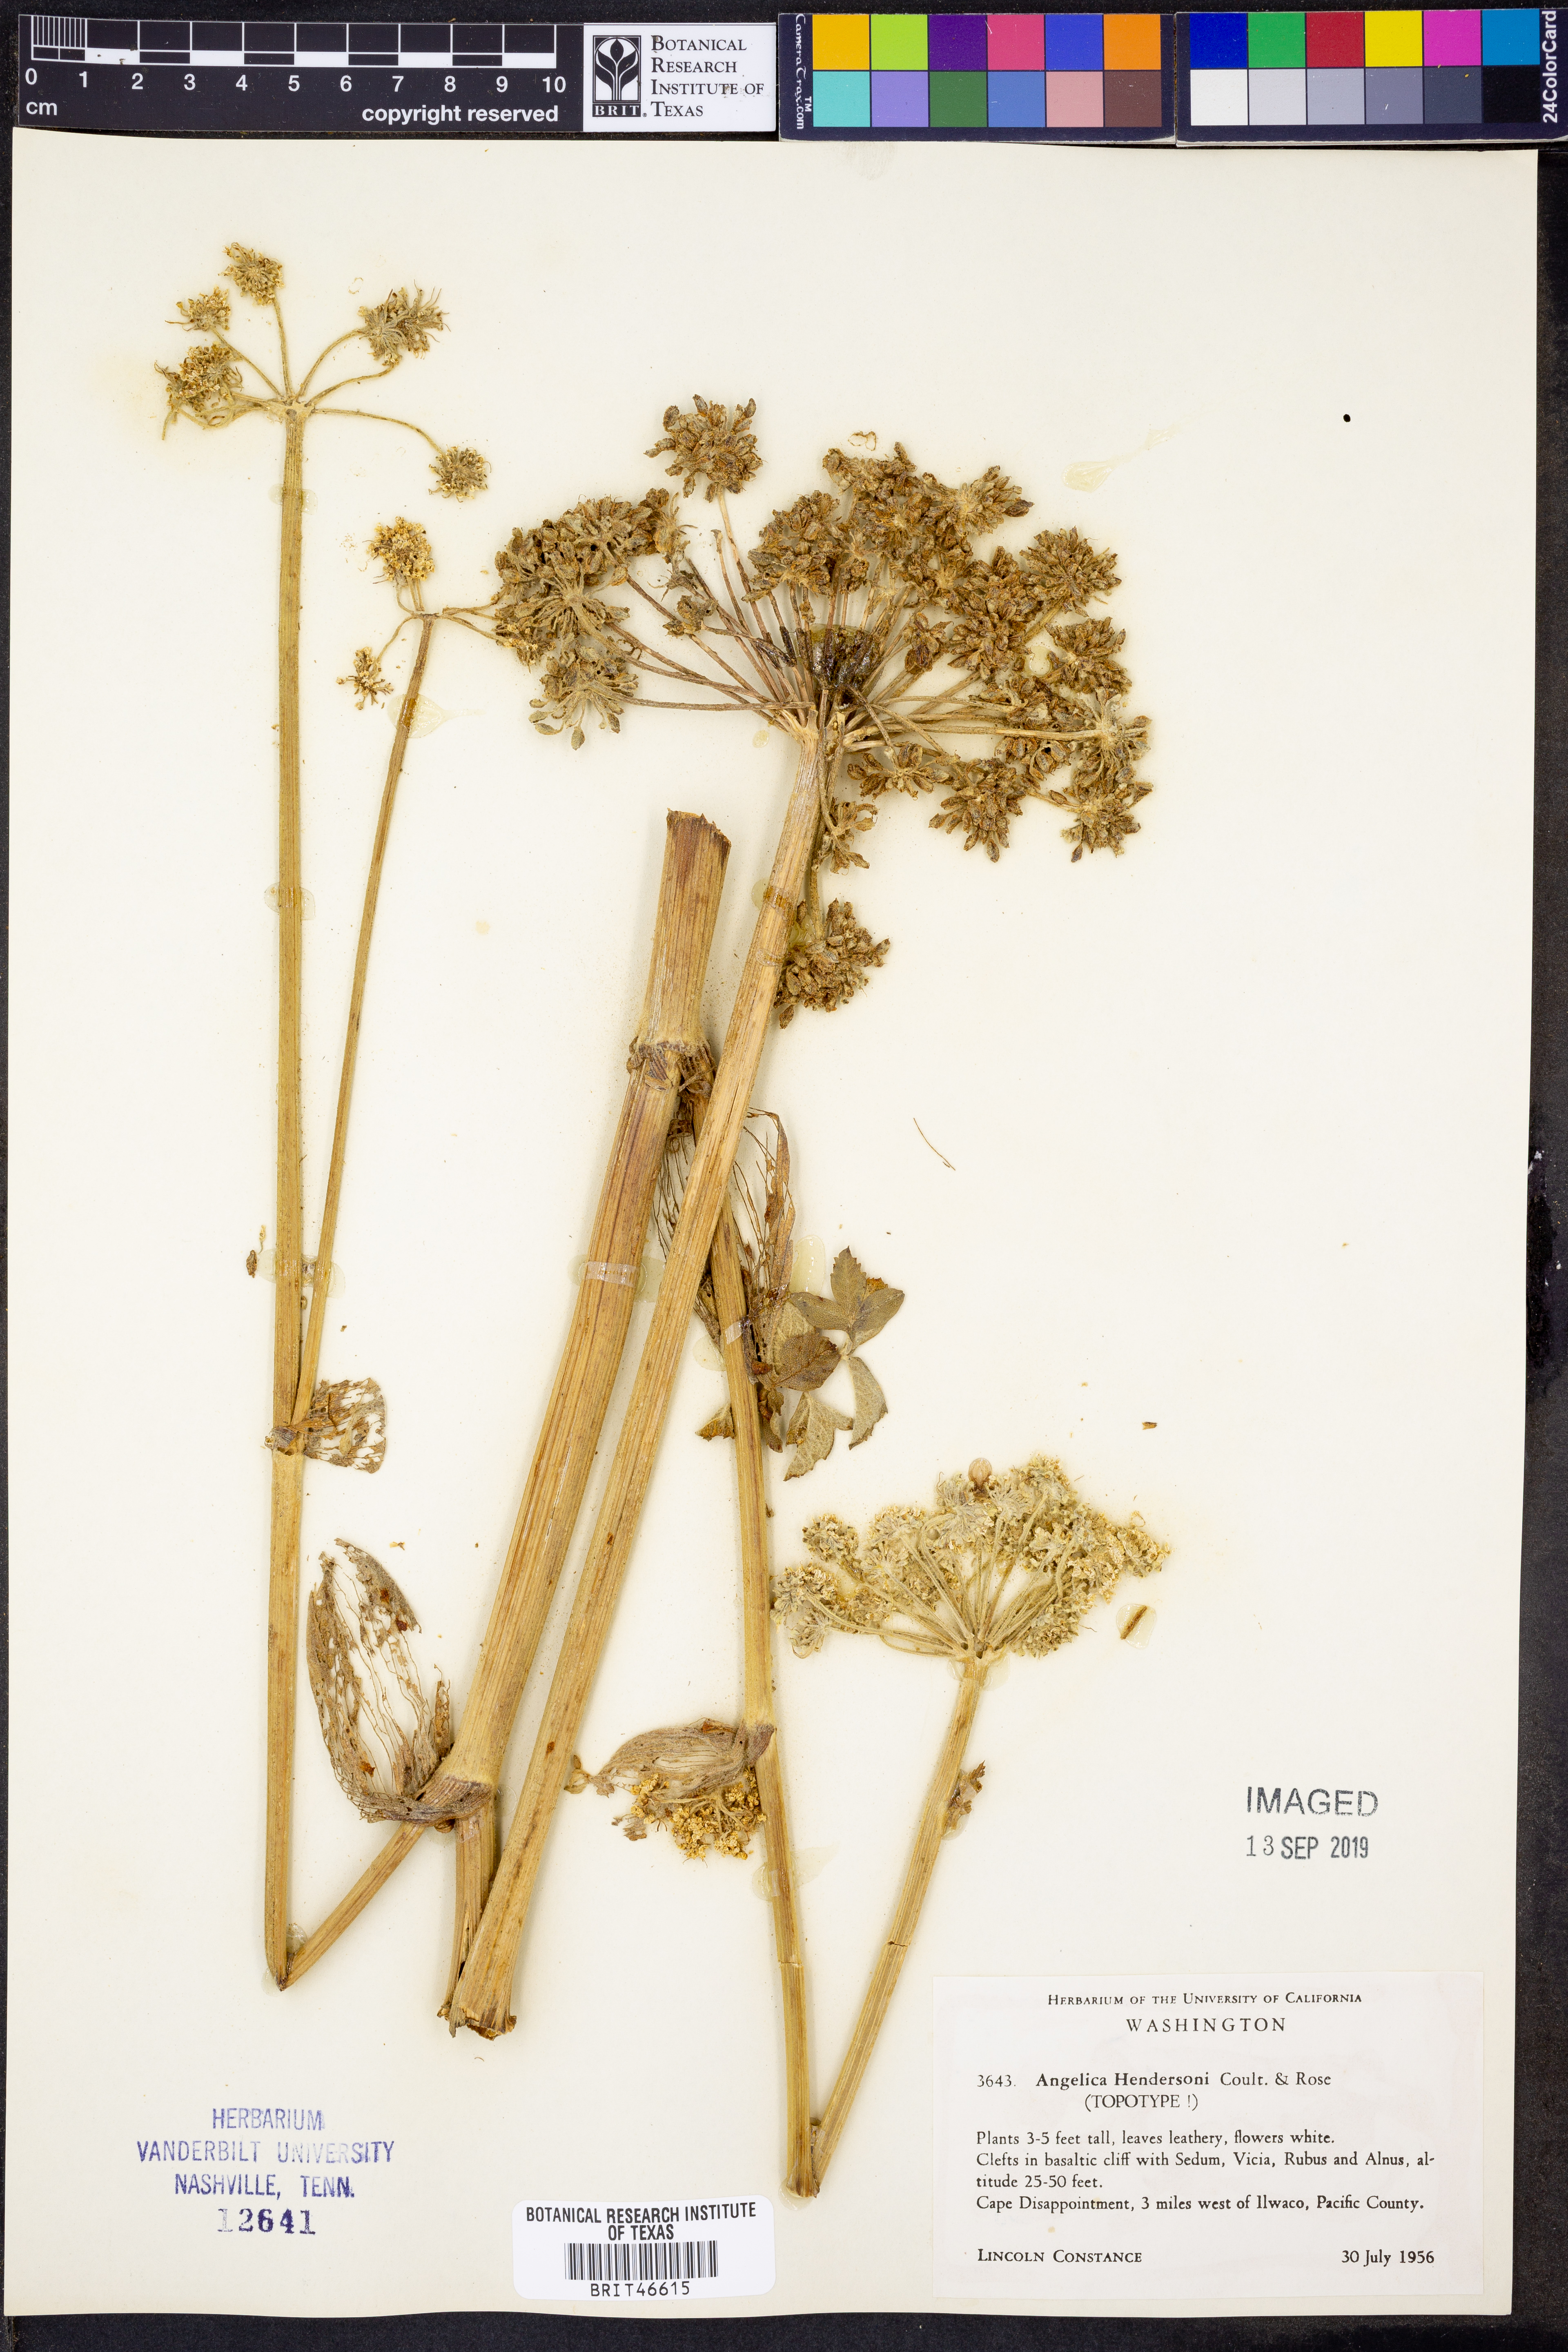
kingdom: Plantae
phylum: Tracheophyta
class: Magnoliopsida
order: Apiales
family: Apiaceae
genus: Angelica
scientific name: Angelica hendersonii
